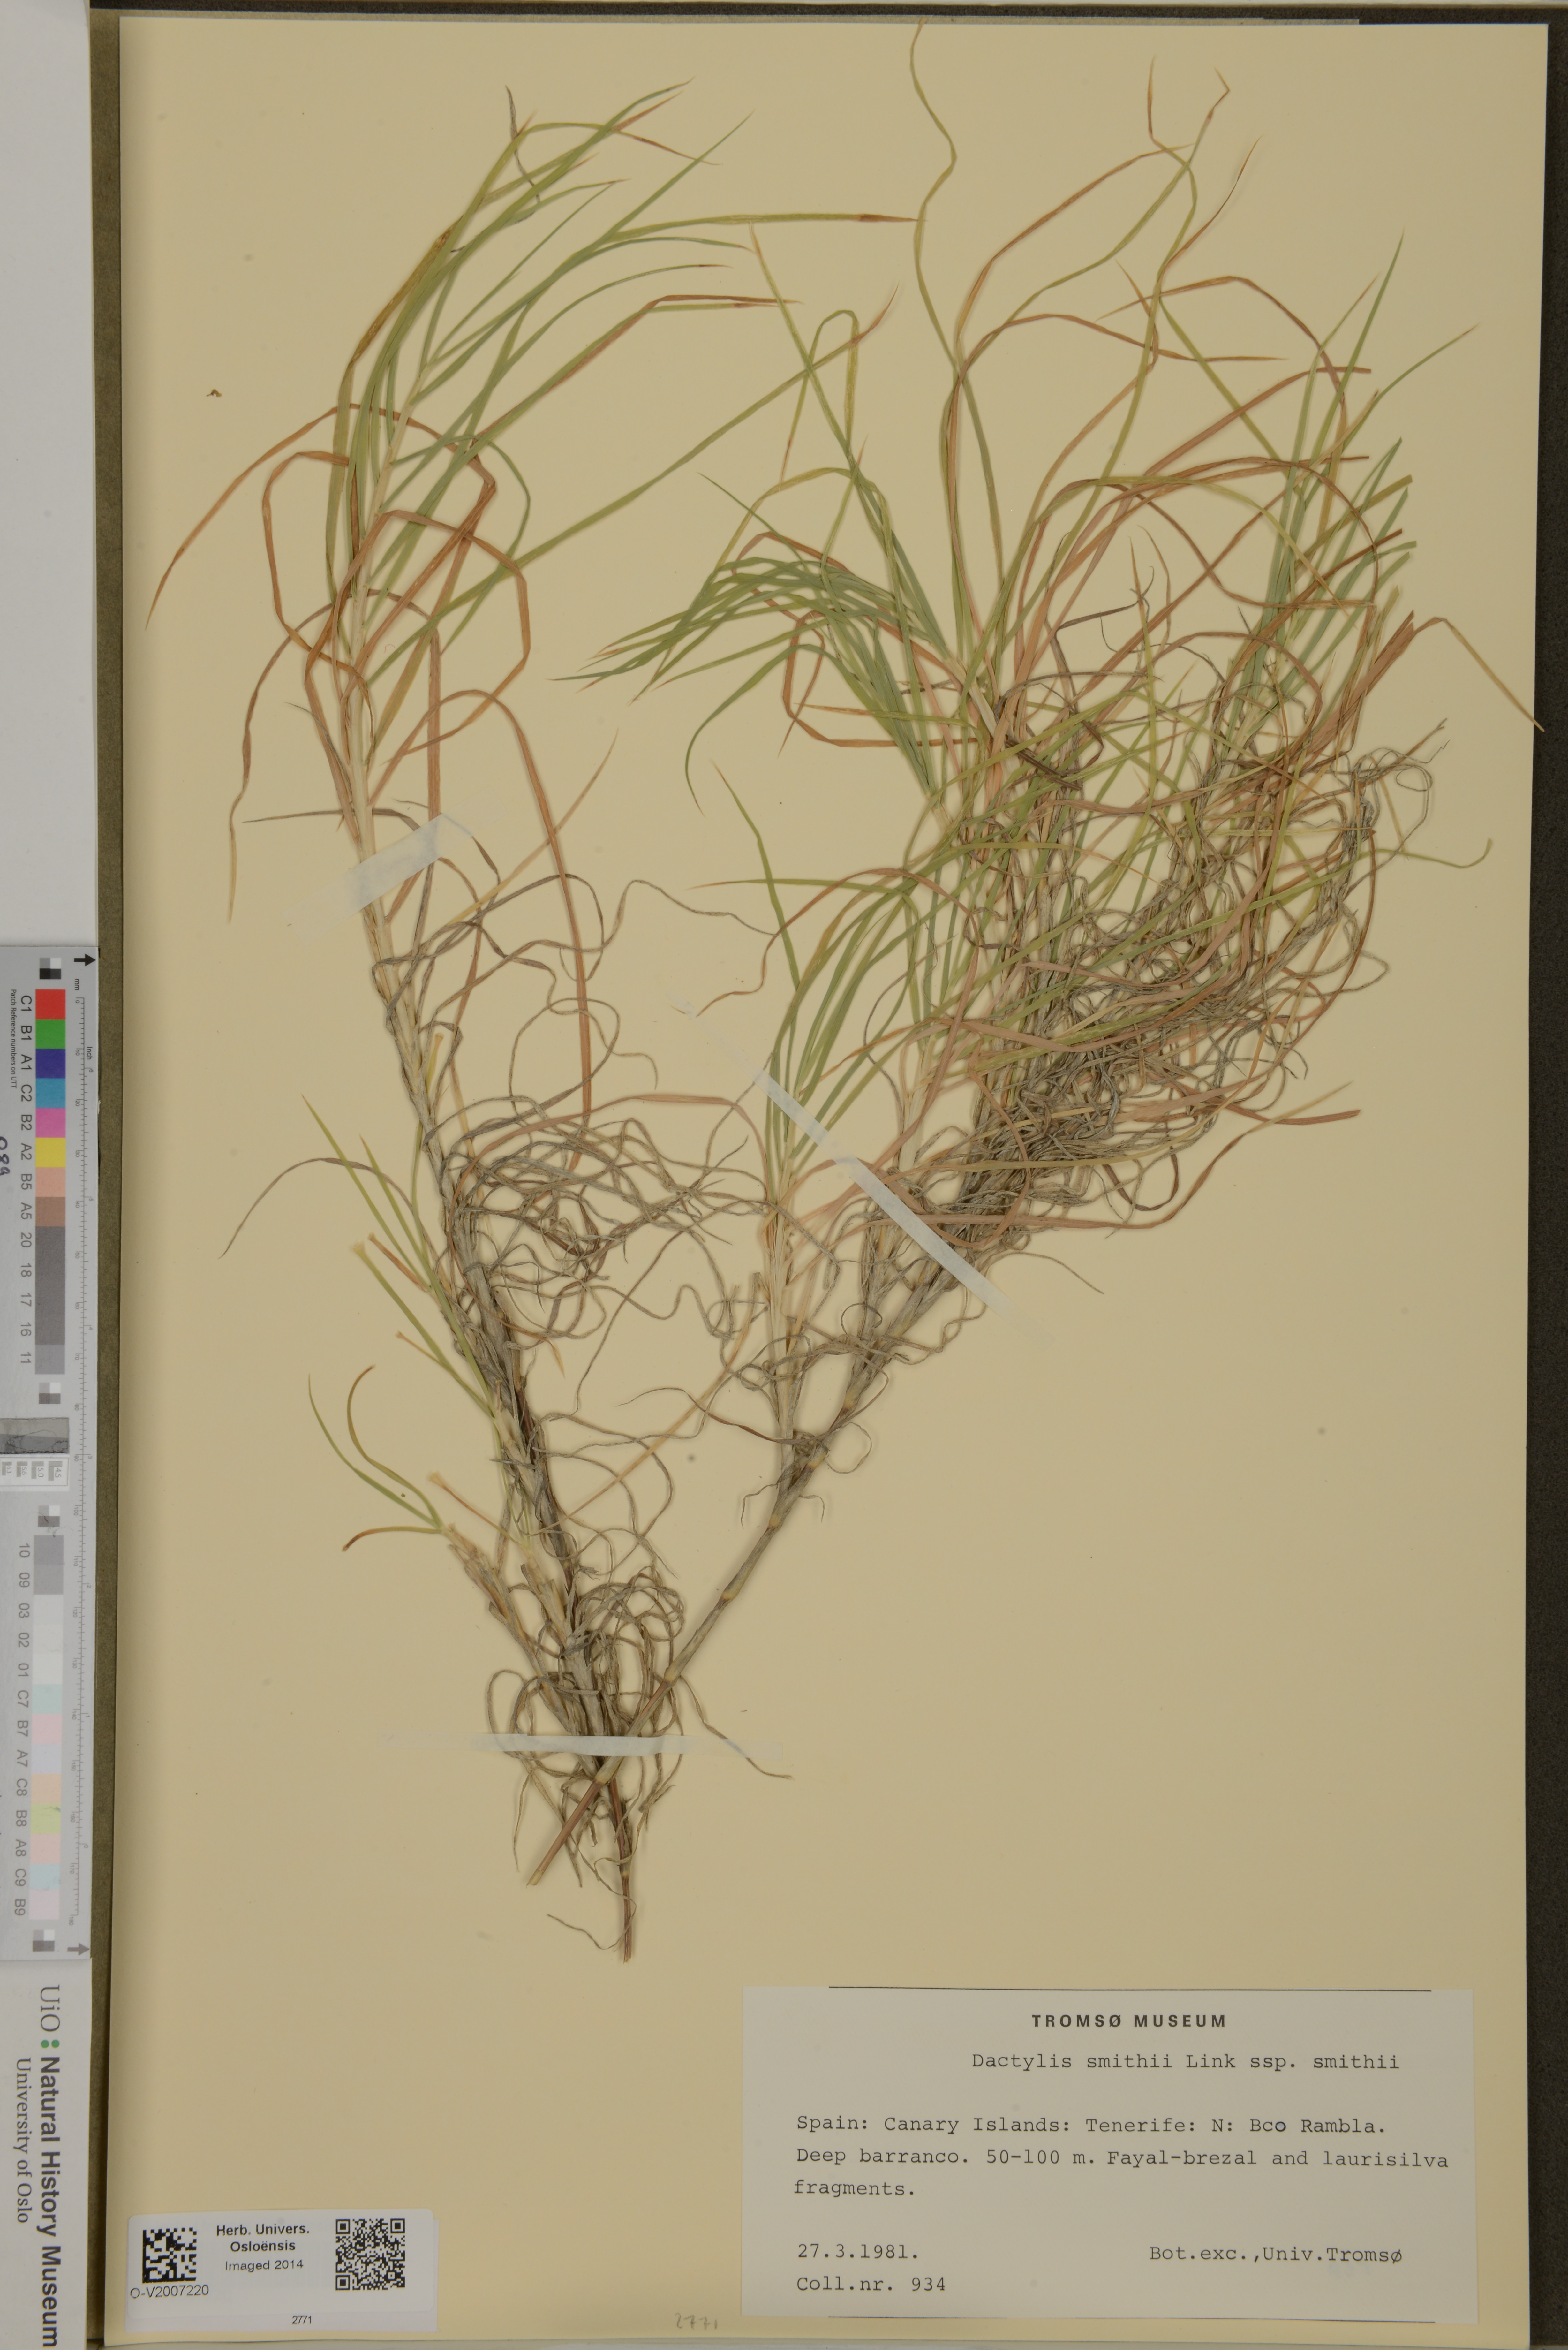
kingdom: Plantae
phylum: Tracheophyta
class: Liliopsida
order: Poales
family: Poaceae
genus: Dactylis
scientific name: Dactylis smithii
